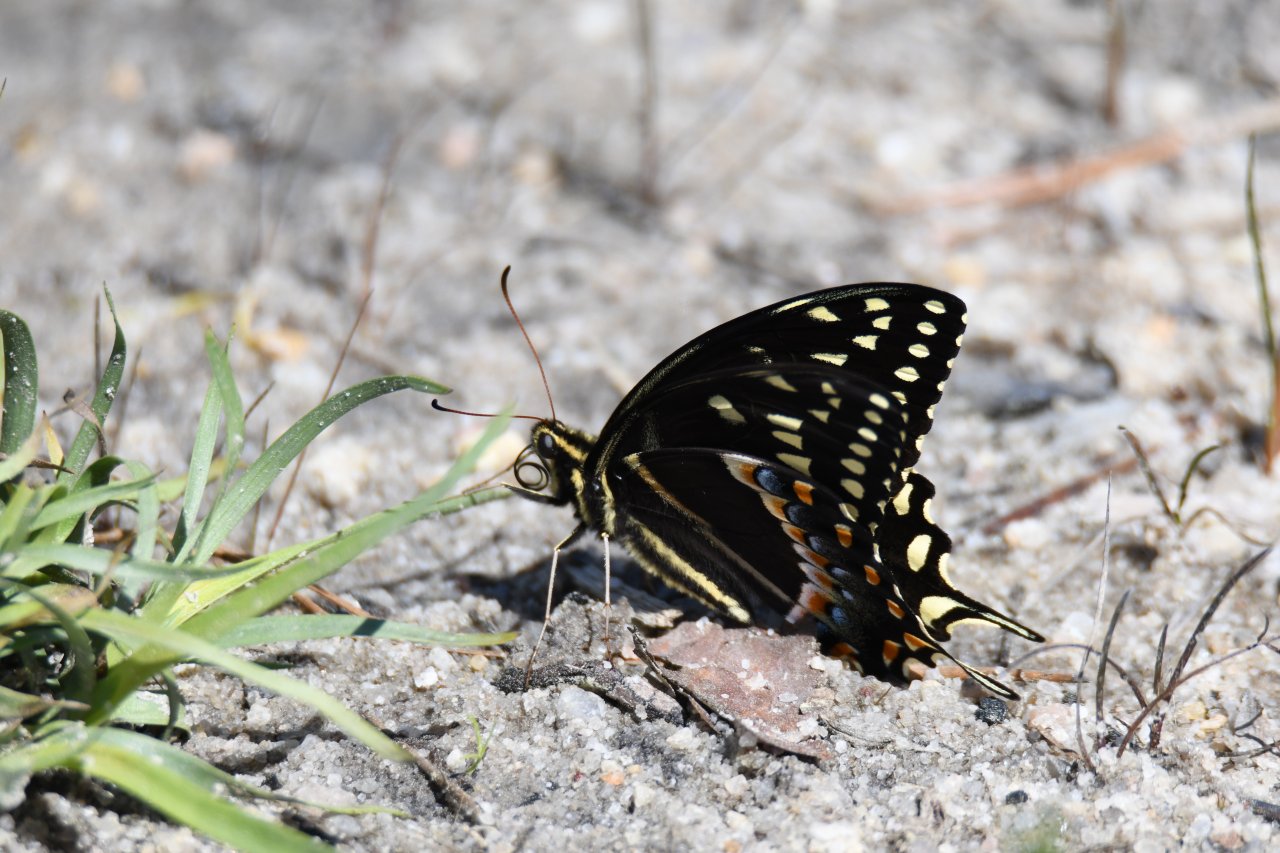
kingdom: Animalia
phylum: Arthropoda
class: Insecta
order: Lepidoptera
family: Papilionidae
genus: Pterourus
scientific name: Pterourus palamedes
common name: Palamedes Swallowtail
